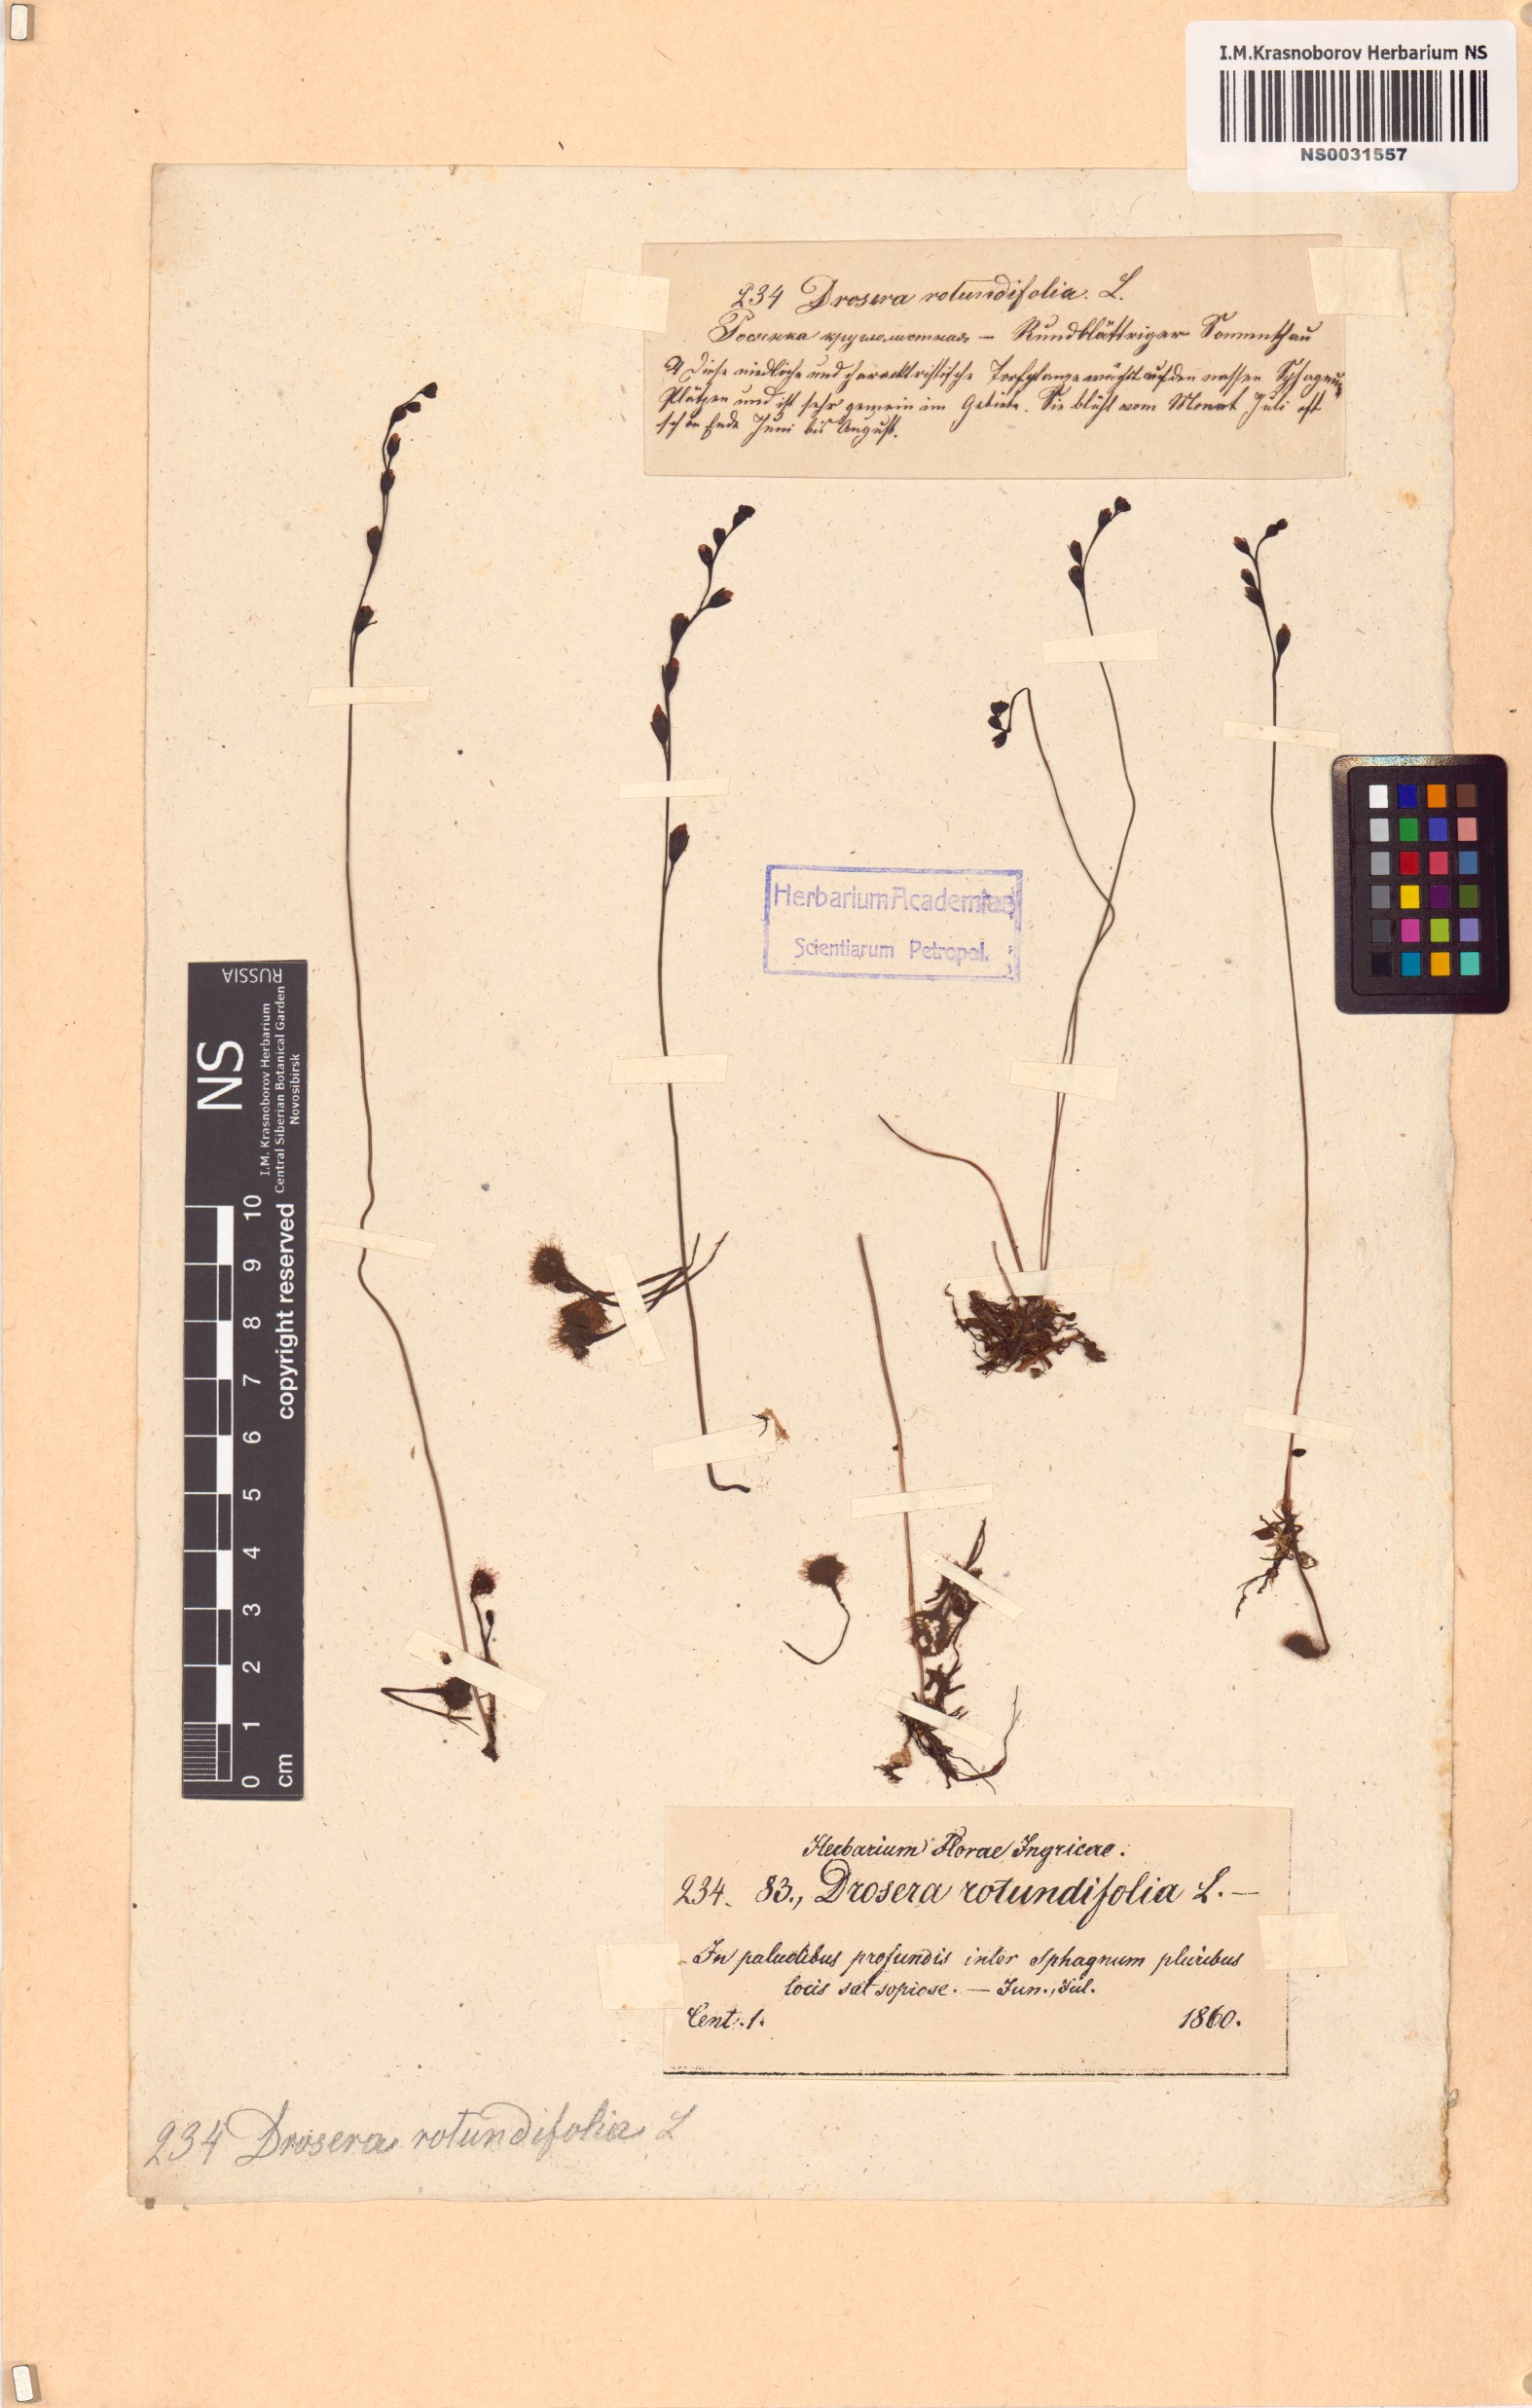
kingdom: Plantae
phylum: Tracheophyta
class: Magnoliopsida
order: Caryophyllales
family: Droseraceae
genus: Drosera
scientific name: Drosera rotundifolia
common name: Round-leaved sundew
